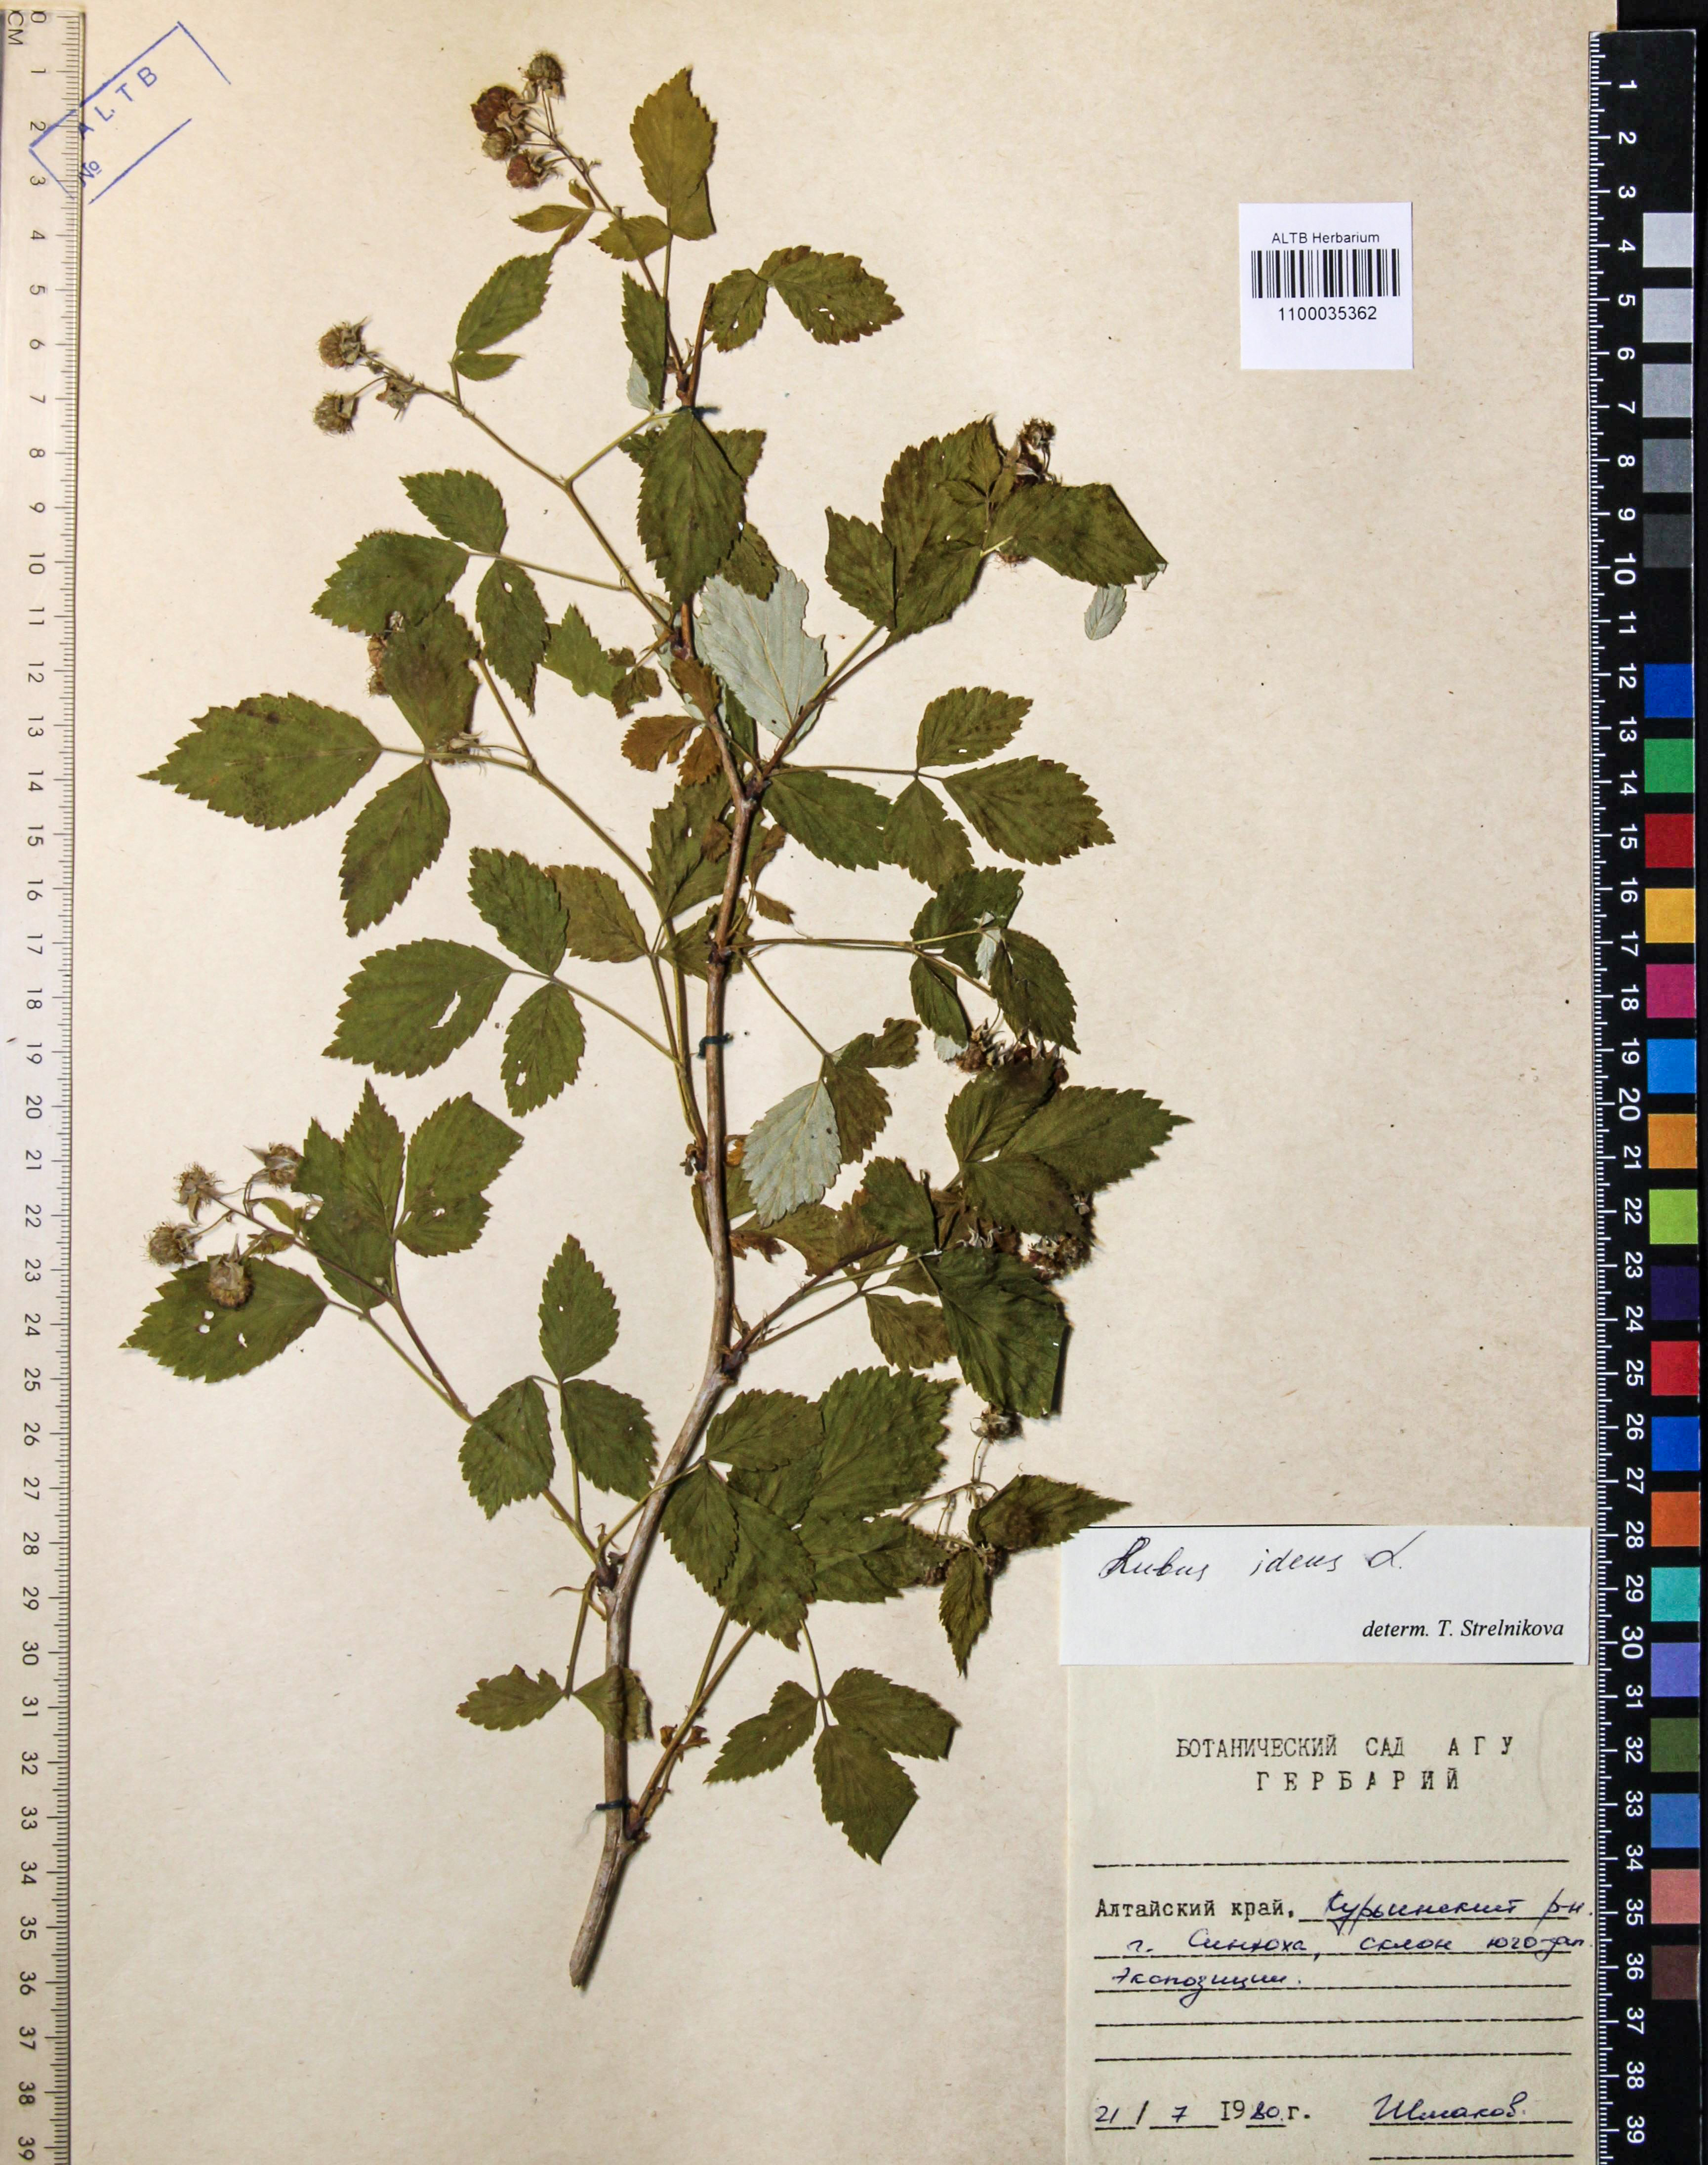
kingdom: Plantae
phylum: Tracheophyta
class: Magnoliopsida
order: Rosales
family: Rosaceae
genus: Rubus
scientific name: Rubus idaeus
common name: Raspberry
